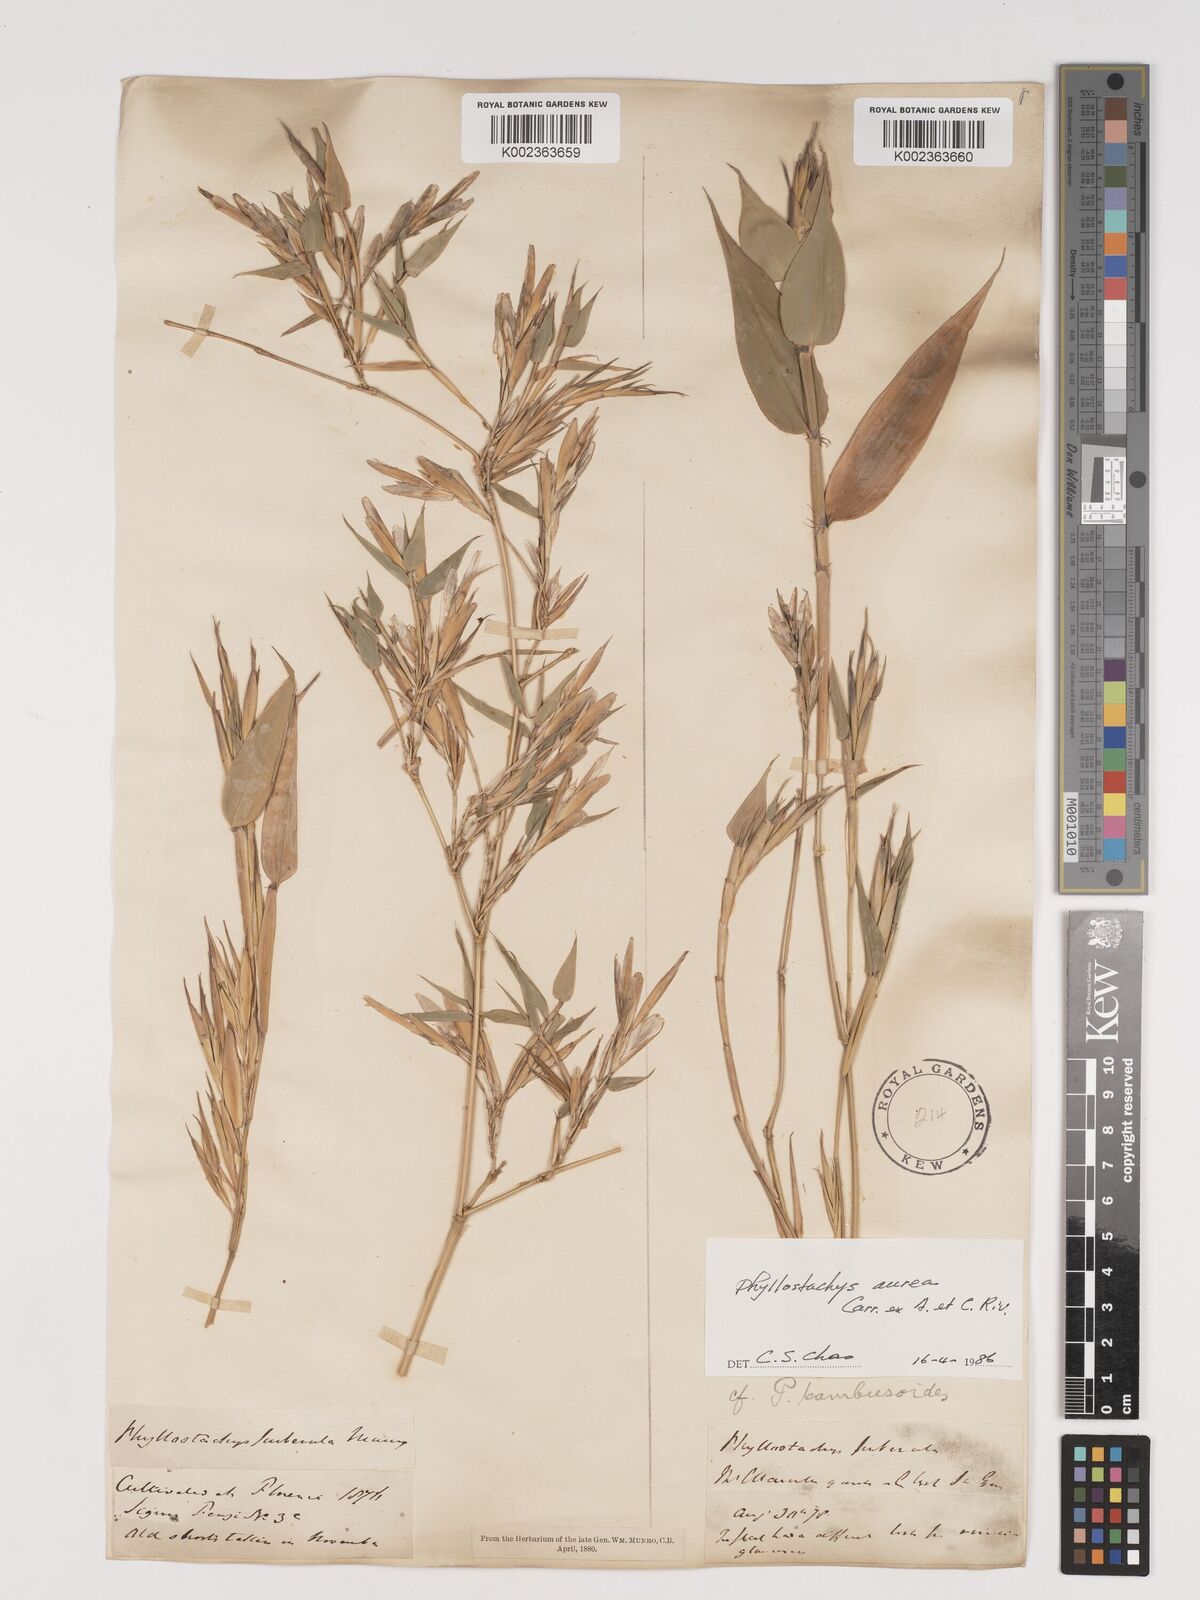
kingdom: Plantae
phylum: Tracheophyta
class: Liliopsida
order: Poales
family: Poaceae
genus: Phyllostachys
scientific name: Phyllostachys aurea
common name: Golden bamboo
